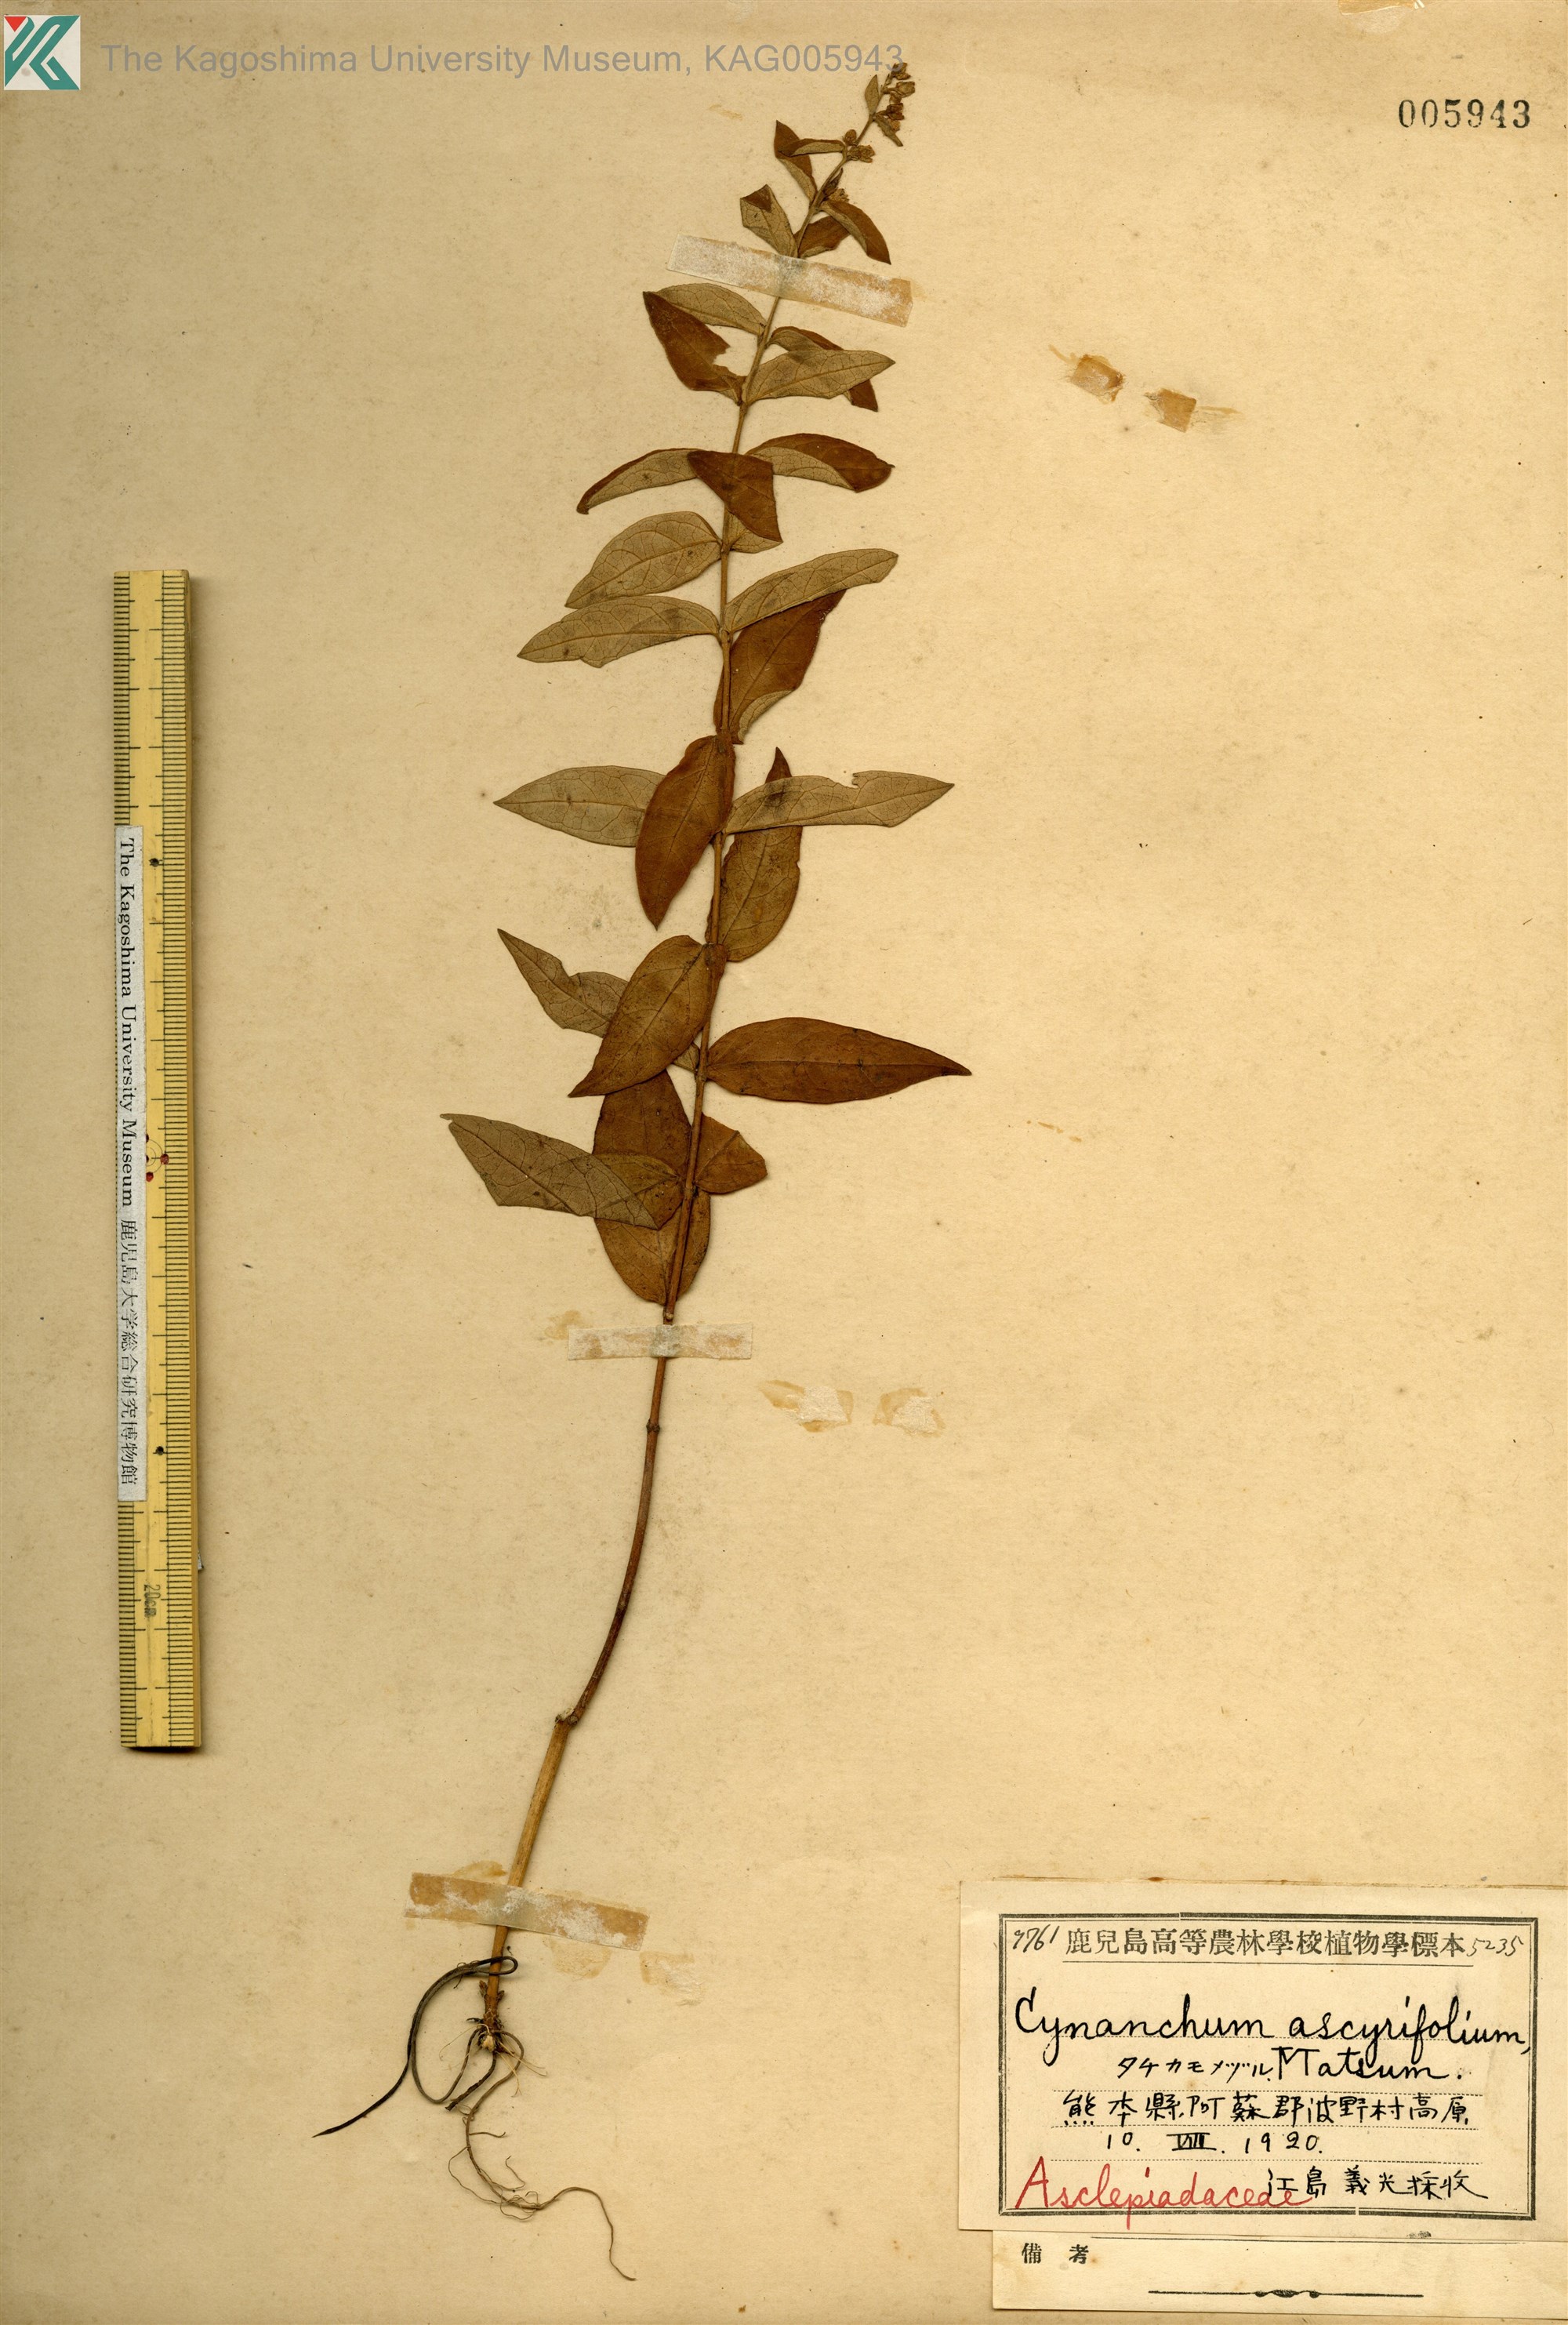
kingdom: Plantae
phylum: Tracheophyta
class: Magnoliopsida
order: Gentianales
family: Apocynaceae
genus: Vincetoxicum
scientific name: Vincetoxicum nipponicum
